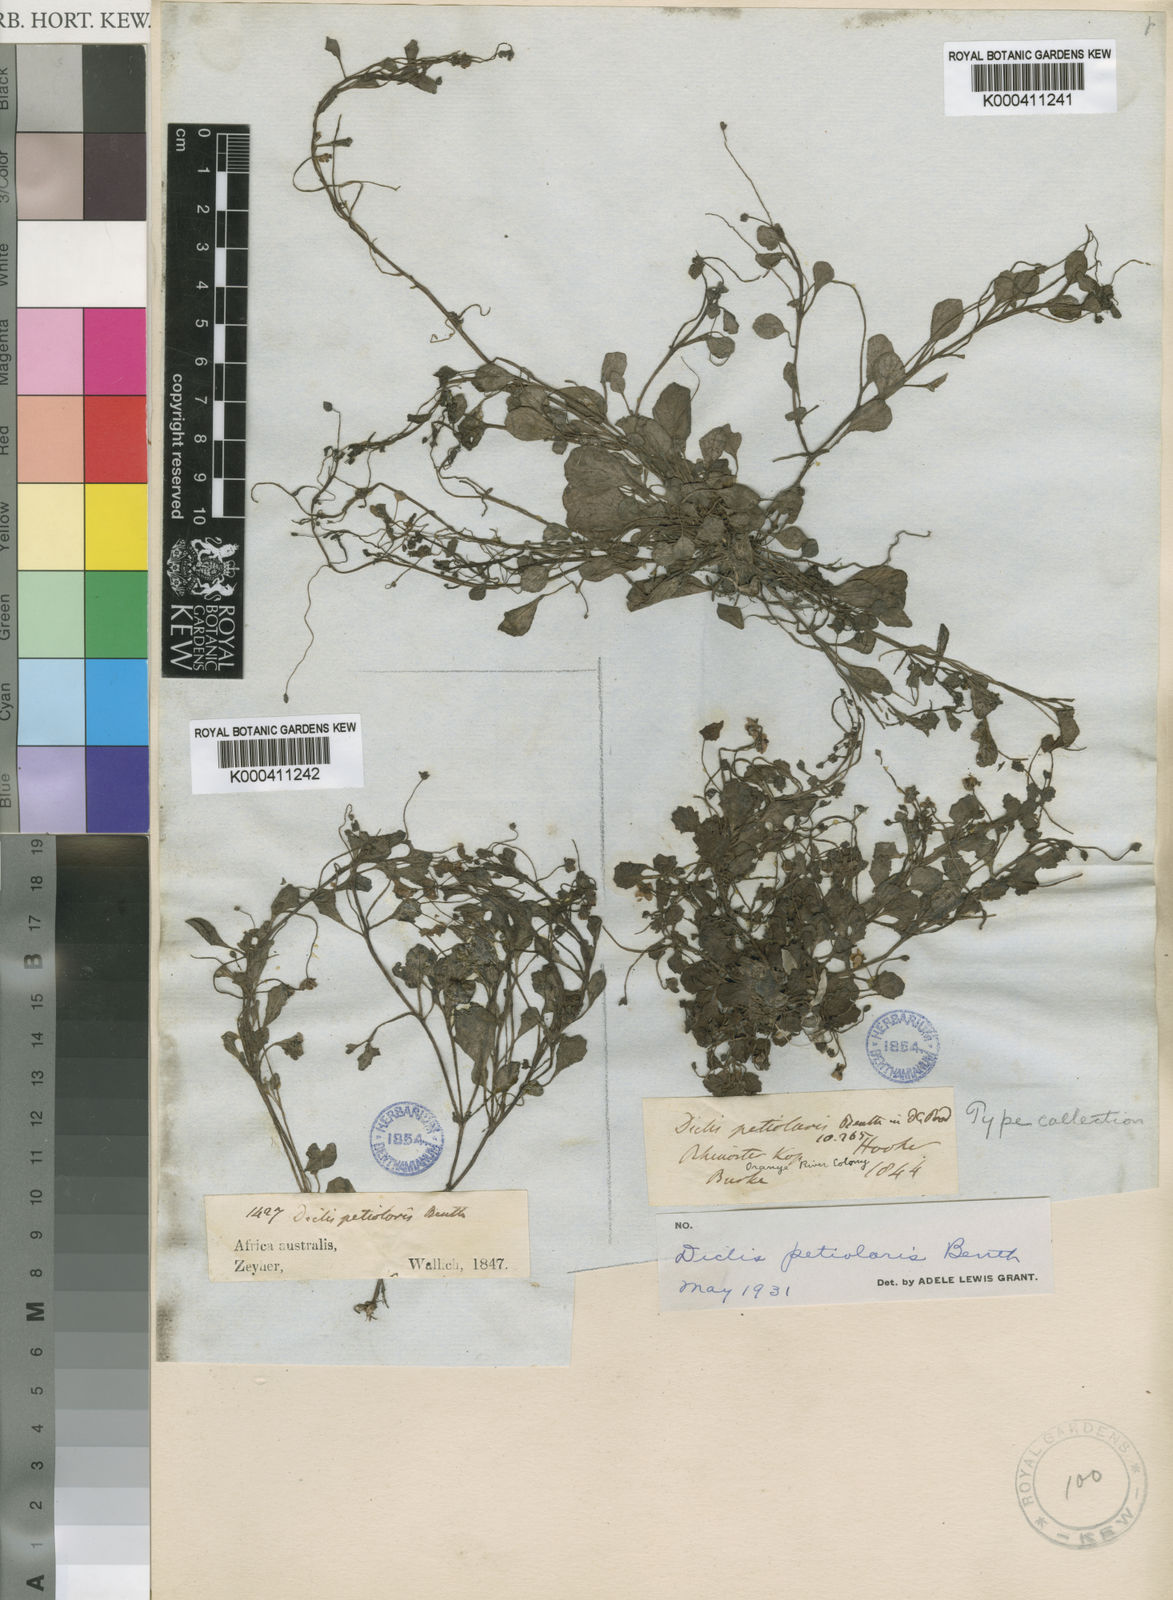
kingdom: Plantae
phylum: Tracheophyta
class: Magnoliopsida
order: Lamiales
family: Scrophulariaceae
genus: Diclis
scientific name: Diclis petiolaris
